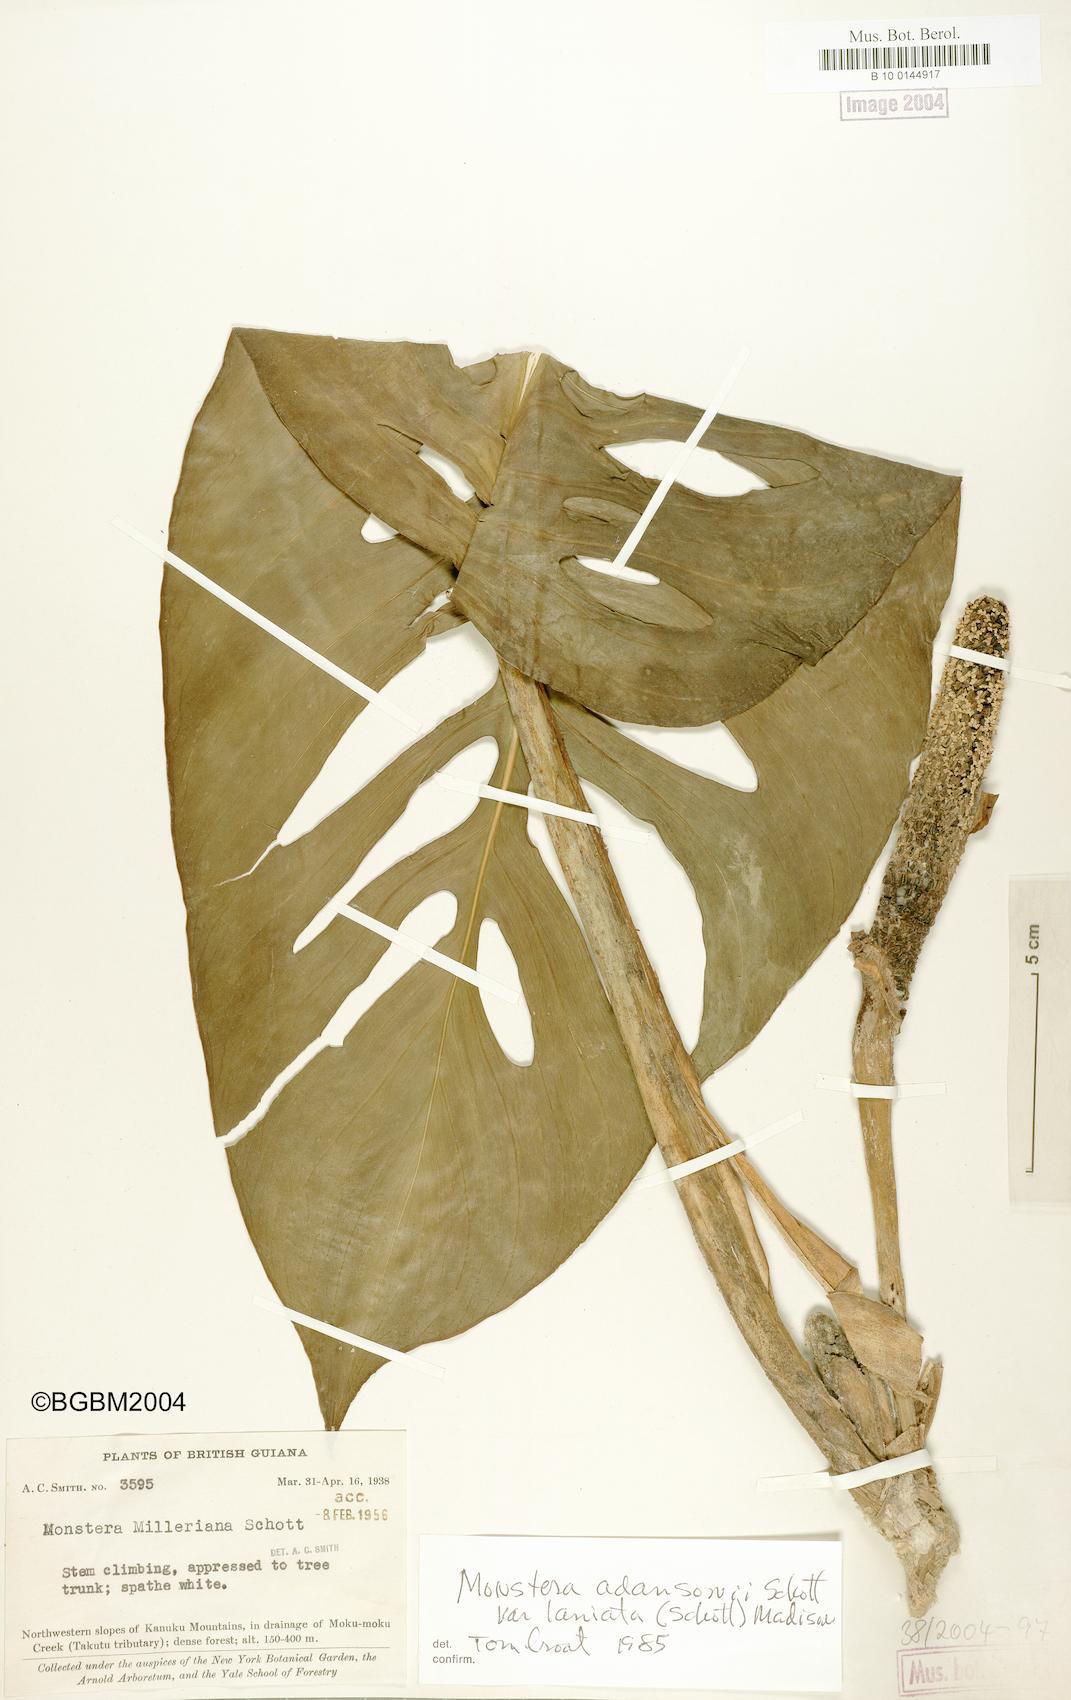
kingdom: Plantae
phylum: Tracheophyta
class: Liliopsida
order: Alismatales
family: Araceae
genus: Monstera
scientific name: Monstera adansonii
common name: Tarovine
